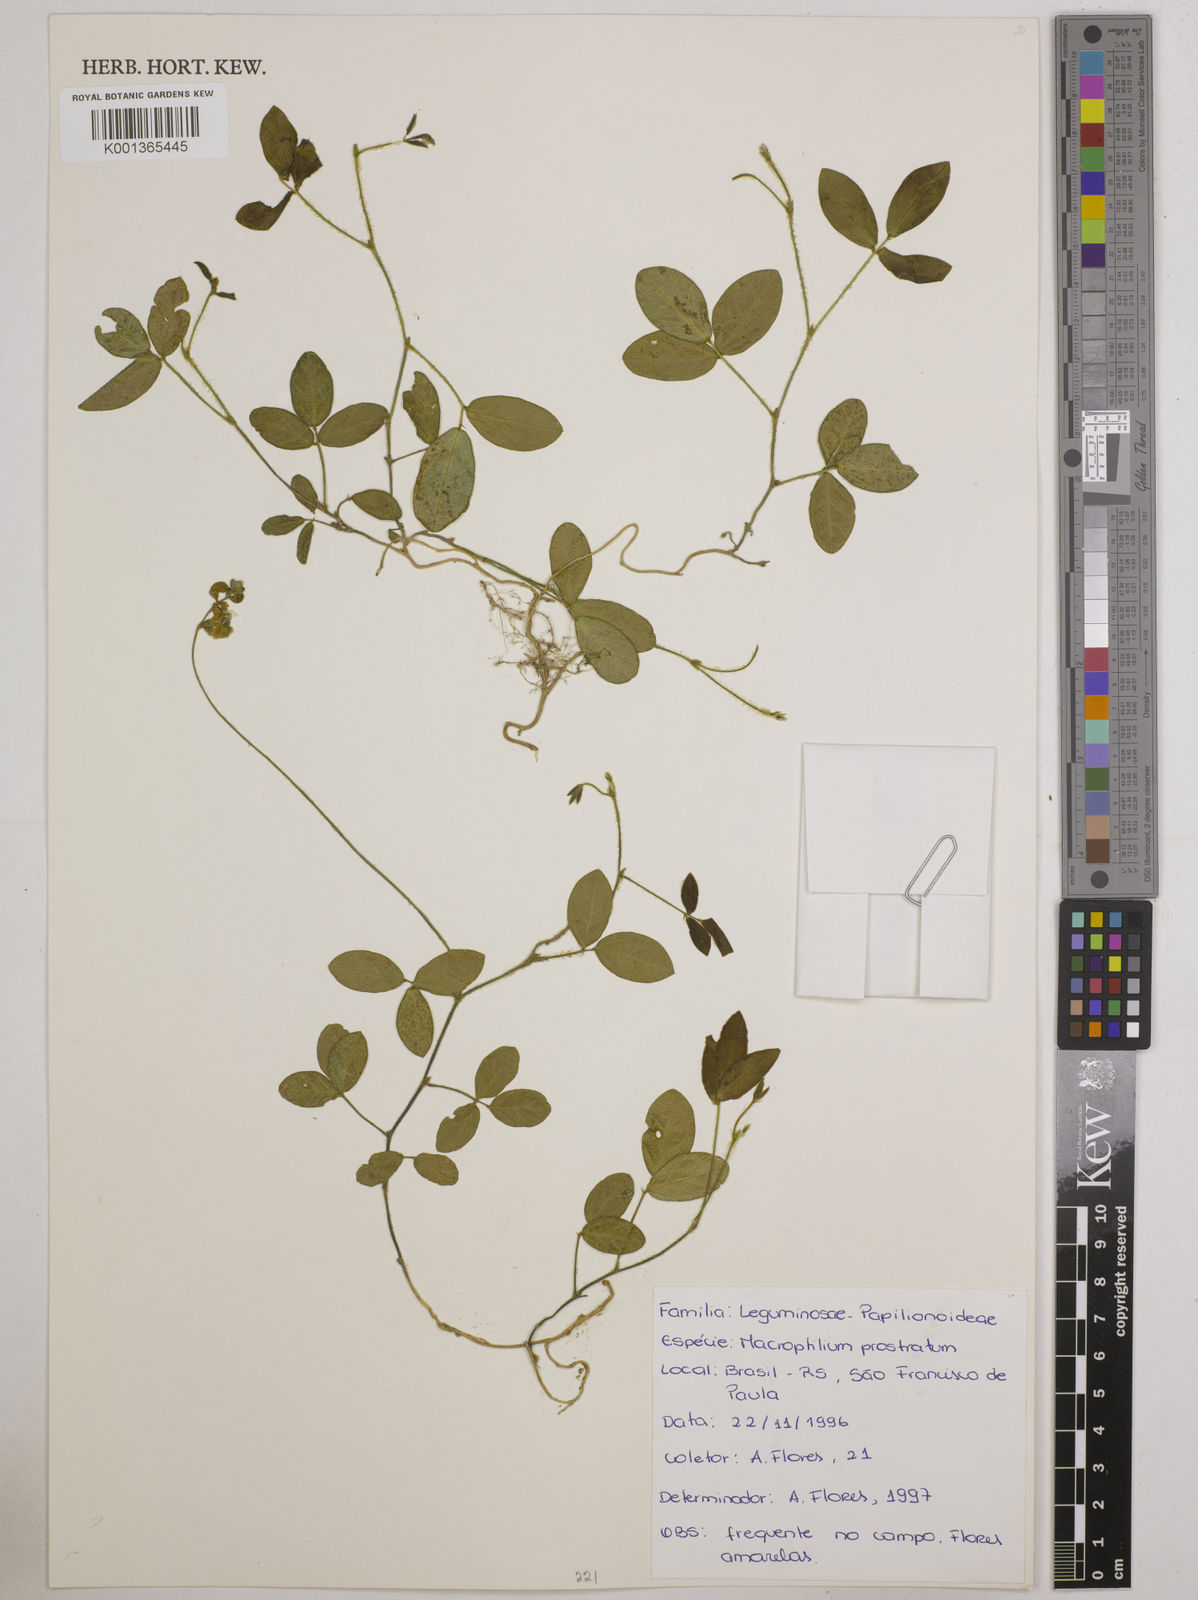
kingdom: Plantae
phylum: Tracheophyta
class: Magnoliopsida
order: Fabales
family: Fabaceae
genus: Macroptilium
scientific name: Macroptilium prostratum
